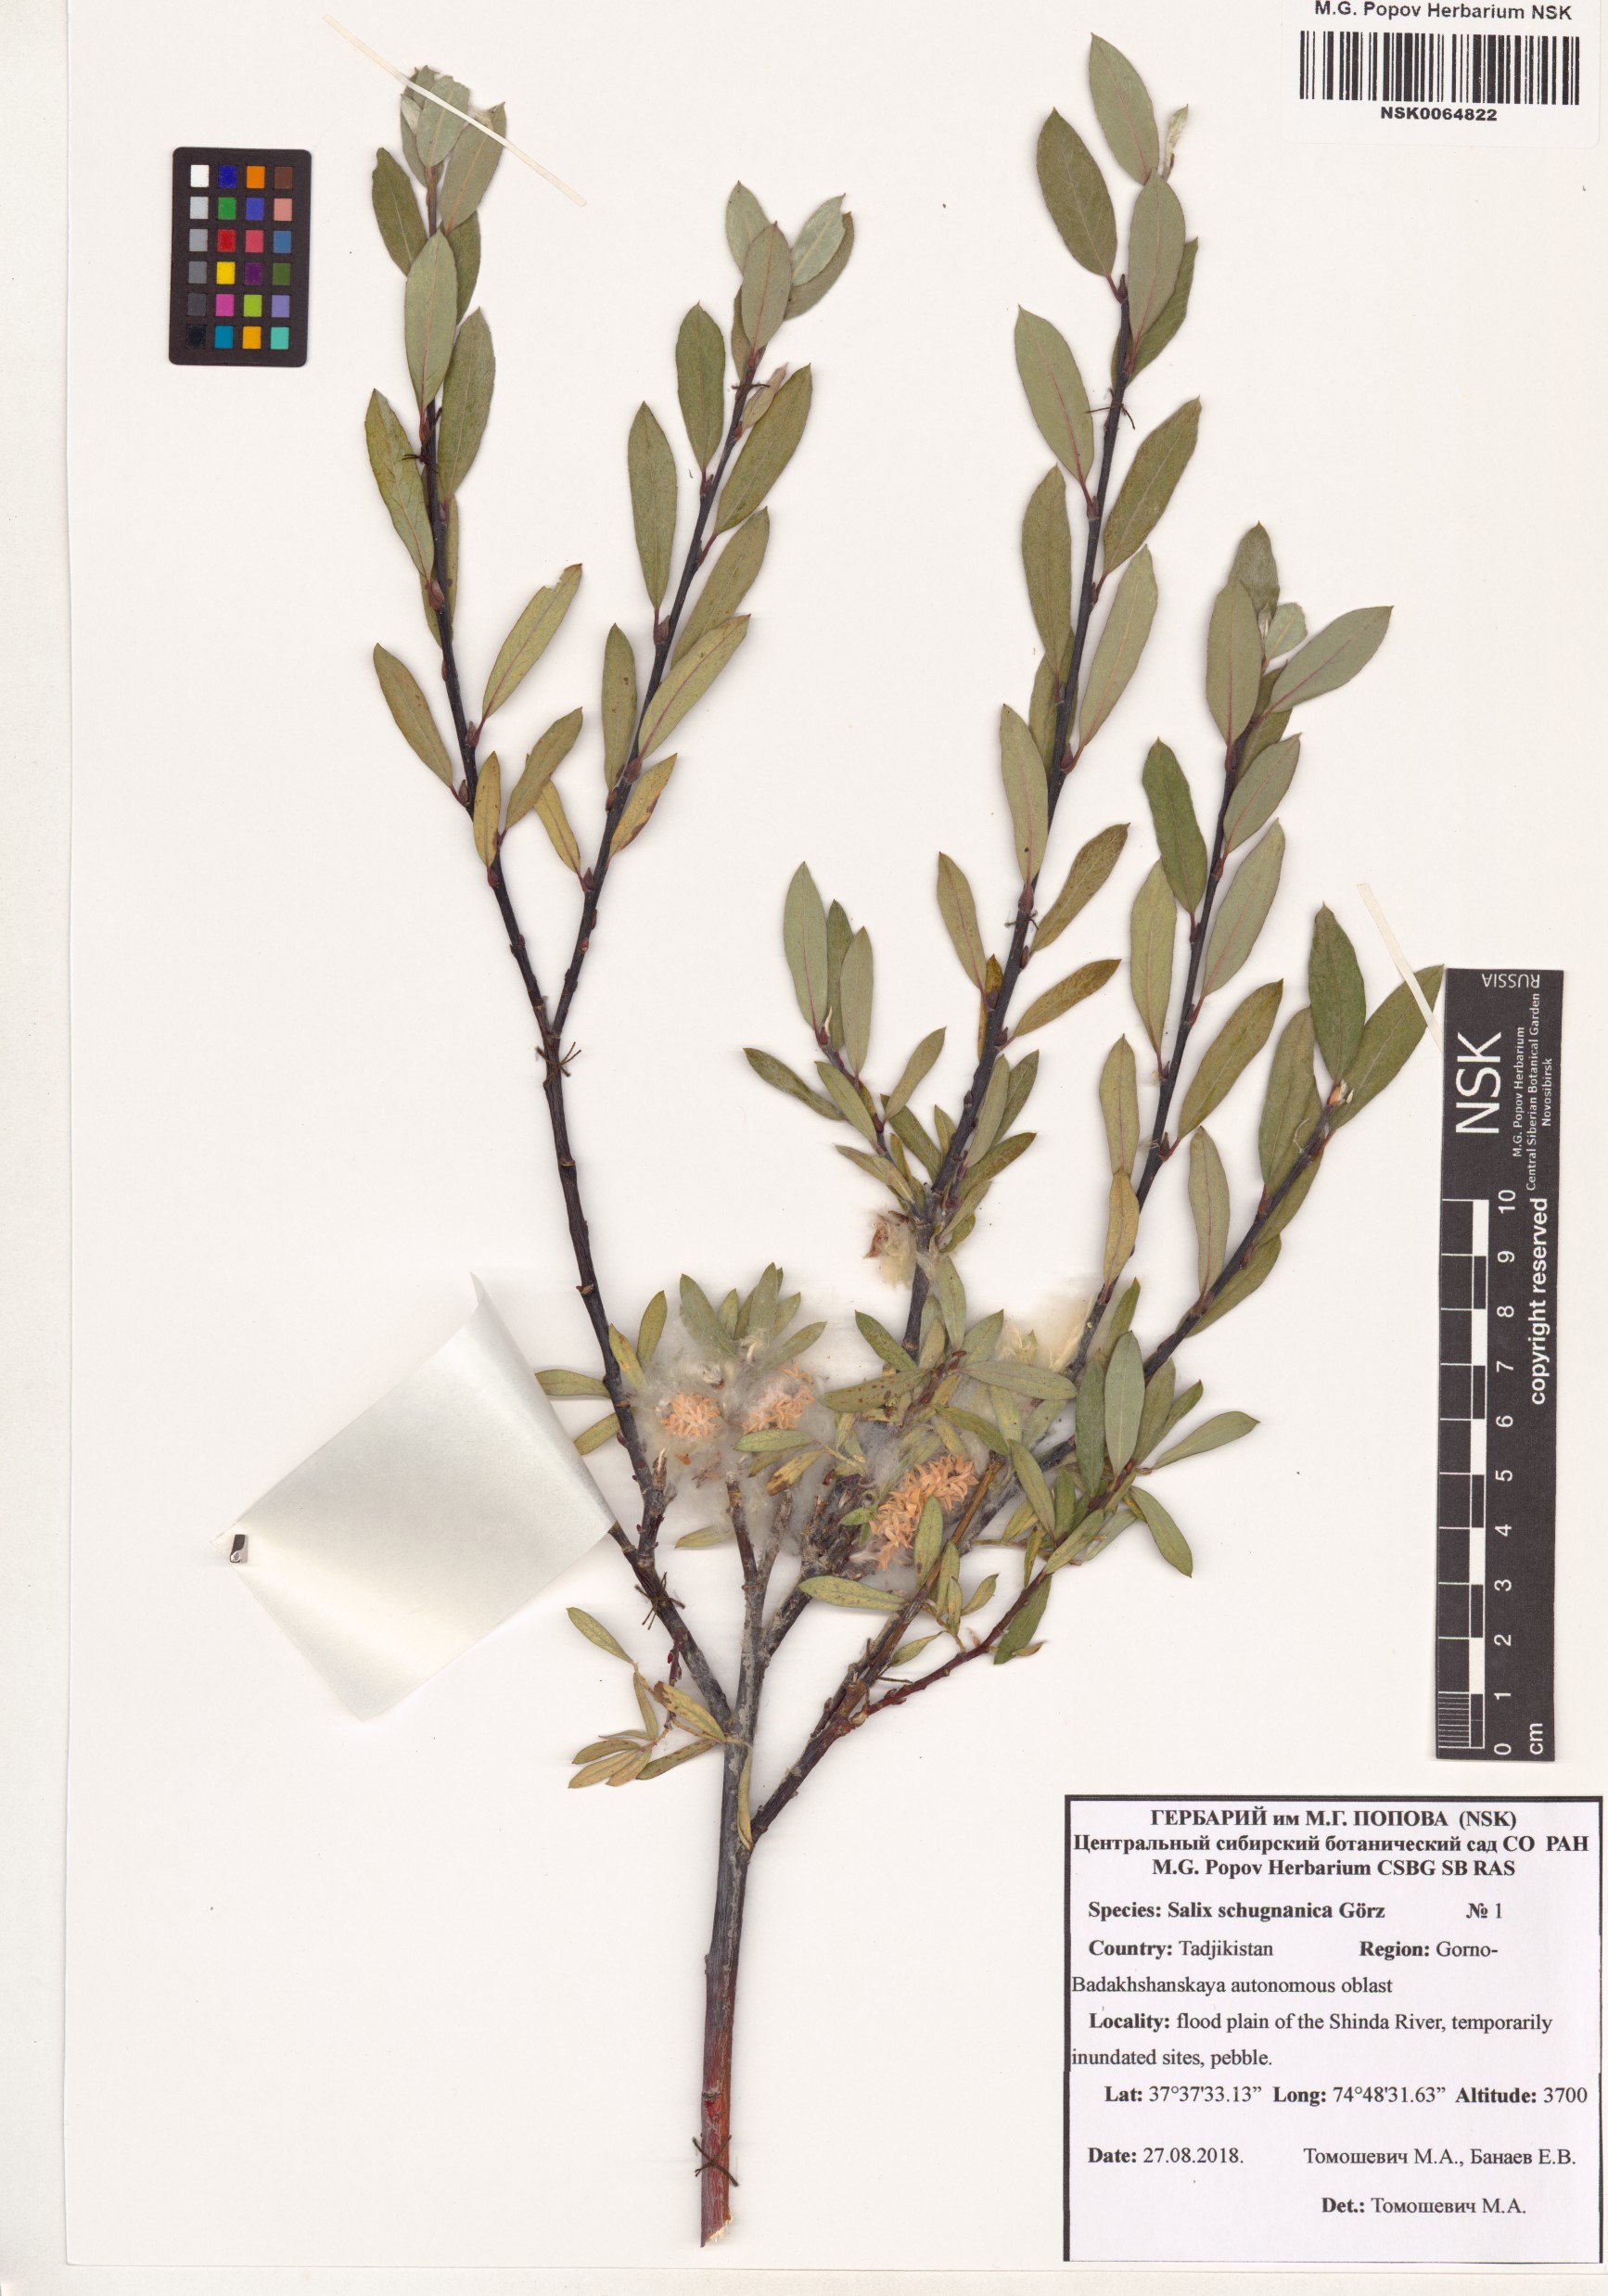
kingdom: Plantae
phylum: Tracheophyta
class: Magnoliopsida
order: Malpighiales
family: Salicaceae
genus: Salix
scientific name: Salix rosmarinifolia
